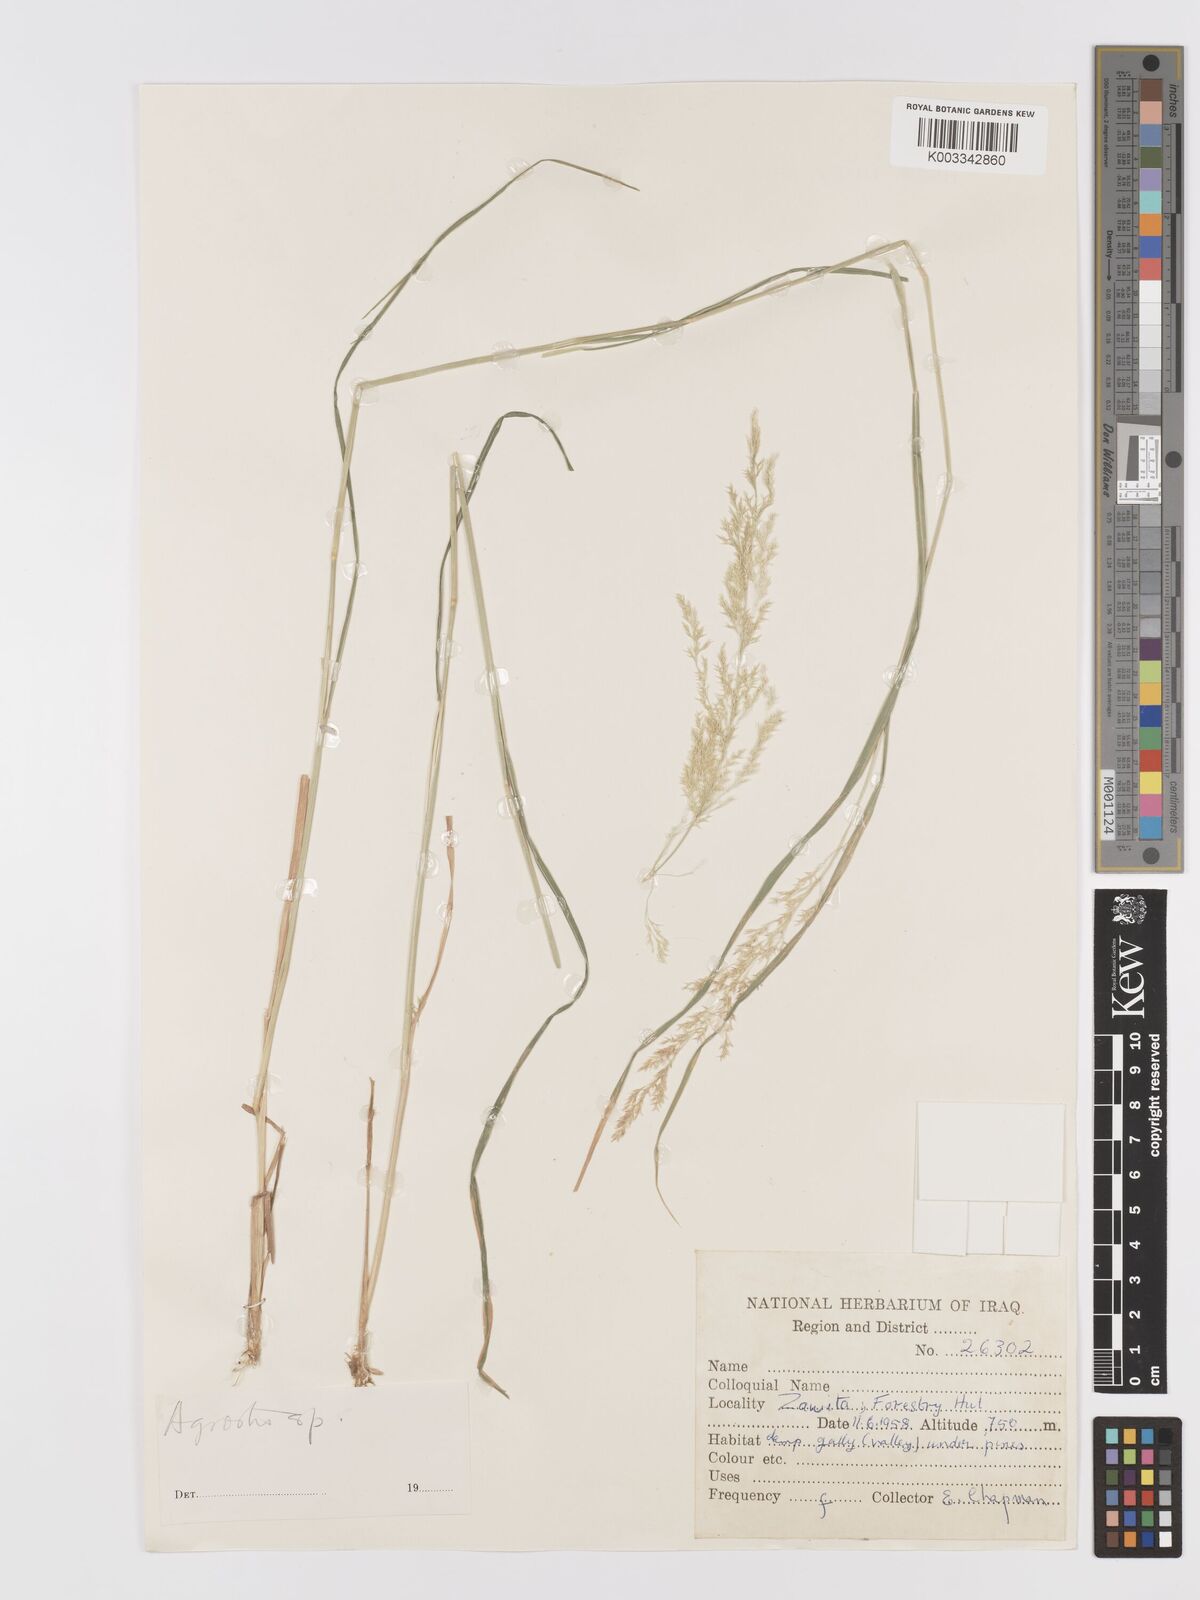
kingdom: Plantae
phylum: Tracheophyta
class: Liliopsida
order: Poales
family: Poaceae
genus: Agrostis
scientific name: Agrostis
